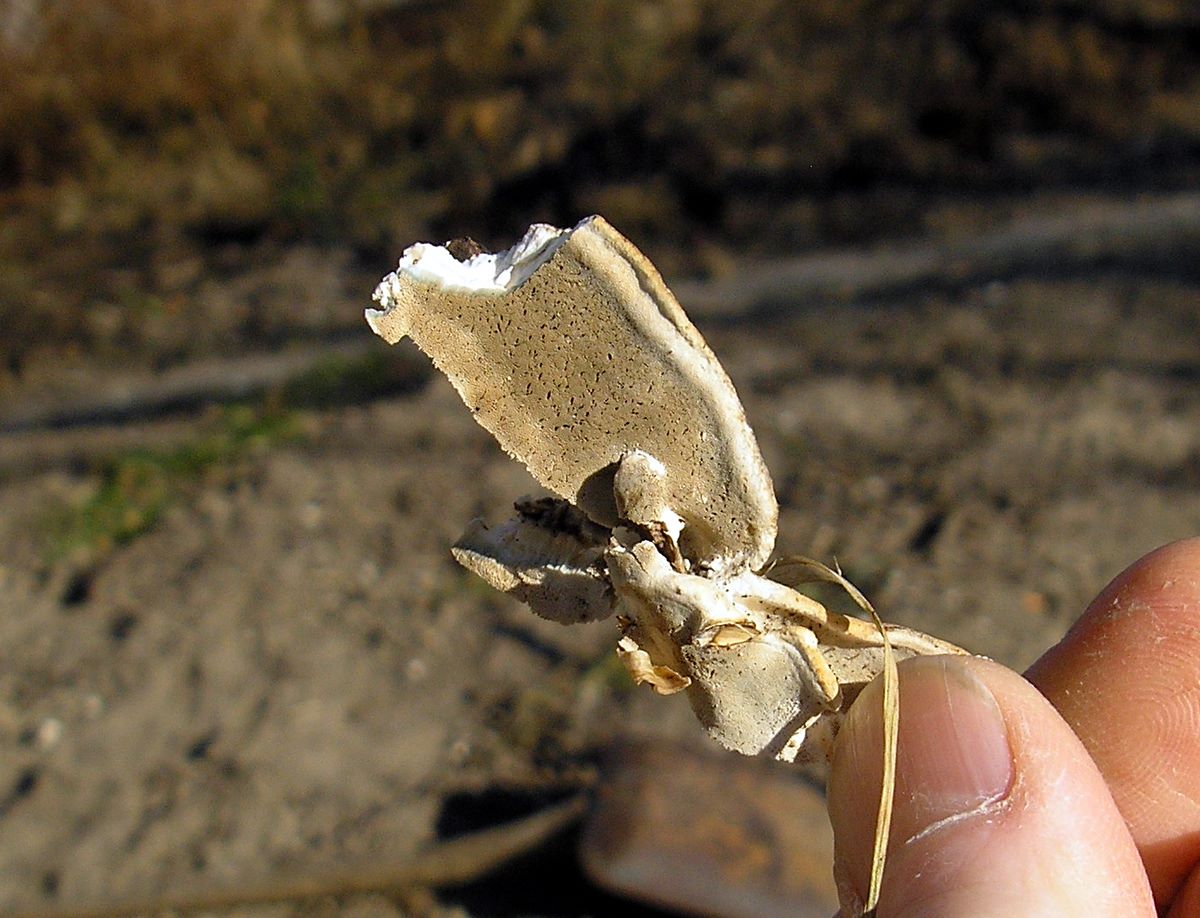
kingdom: Fungi
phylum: Basidiomycota
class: Agaricomycetes
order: Polyporales
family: Incrustoporiaceae
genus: Skeletocutis
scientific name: Skeletocutis nemoralis
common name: stor krystalporesvamp
